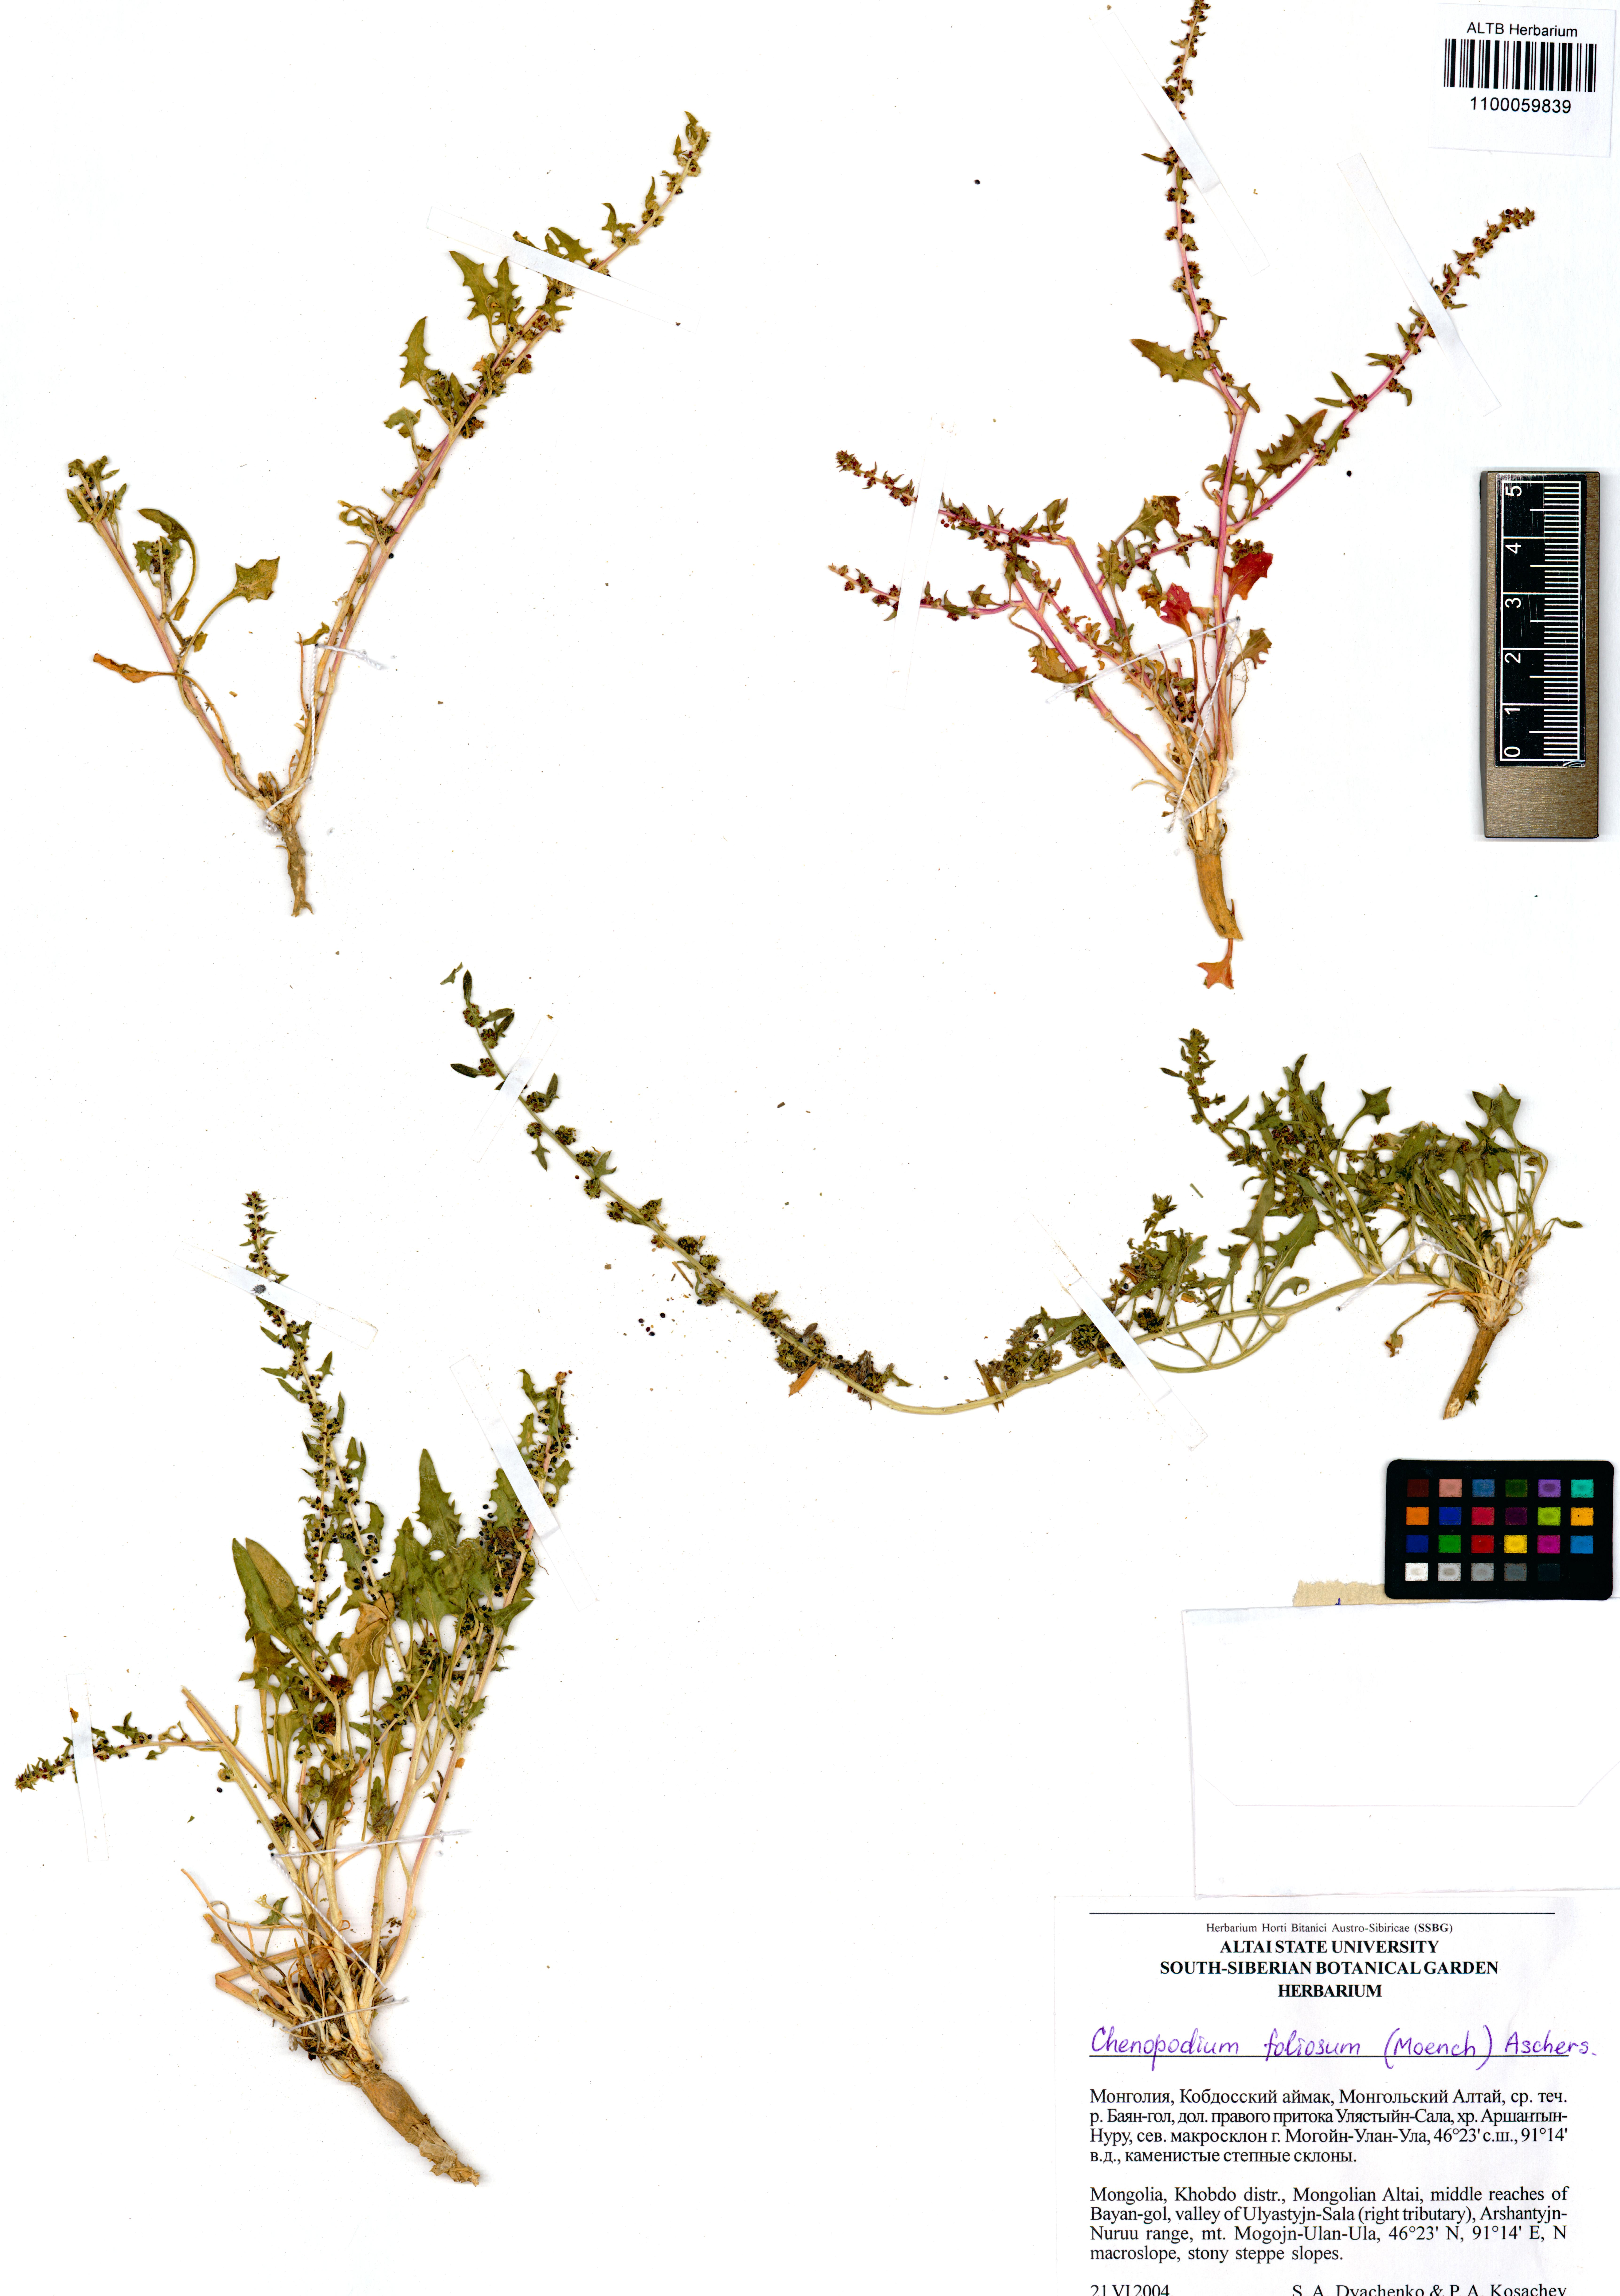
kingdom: Plantae
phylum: Tracheophyta
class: Magnoliopsida
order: Caryophyllales
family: Amaranthaceae
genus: Blitum
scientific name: Blitum virgatum
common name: Strawberry goosefoot
